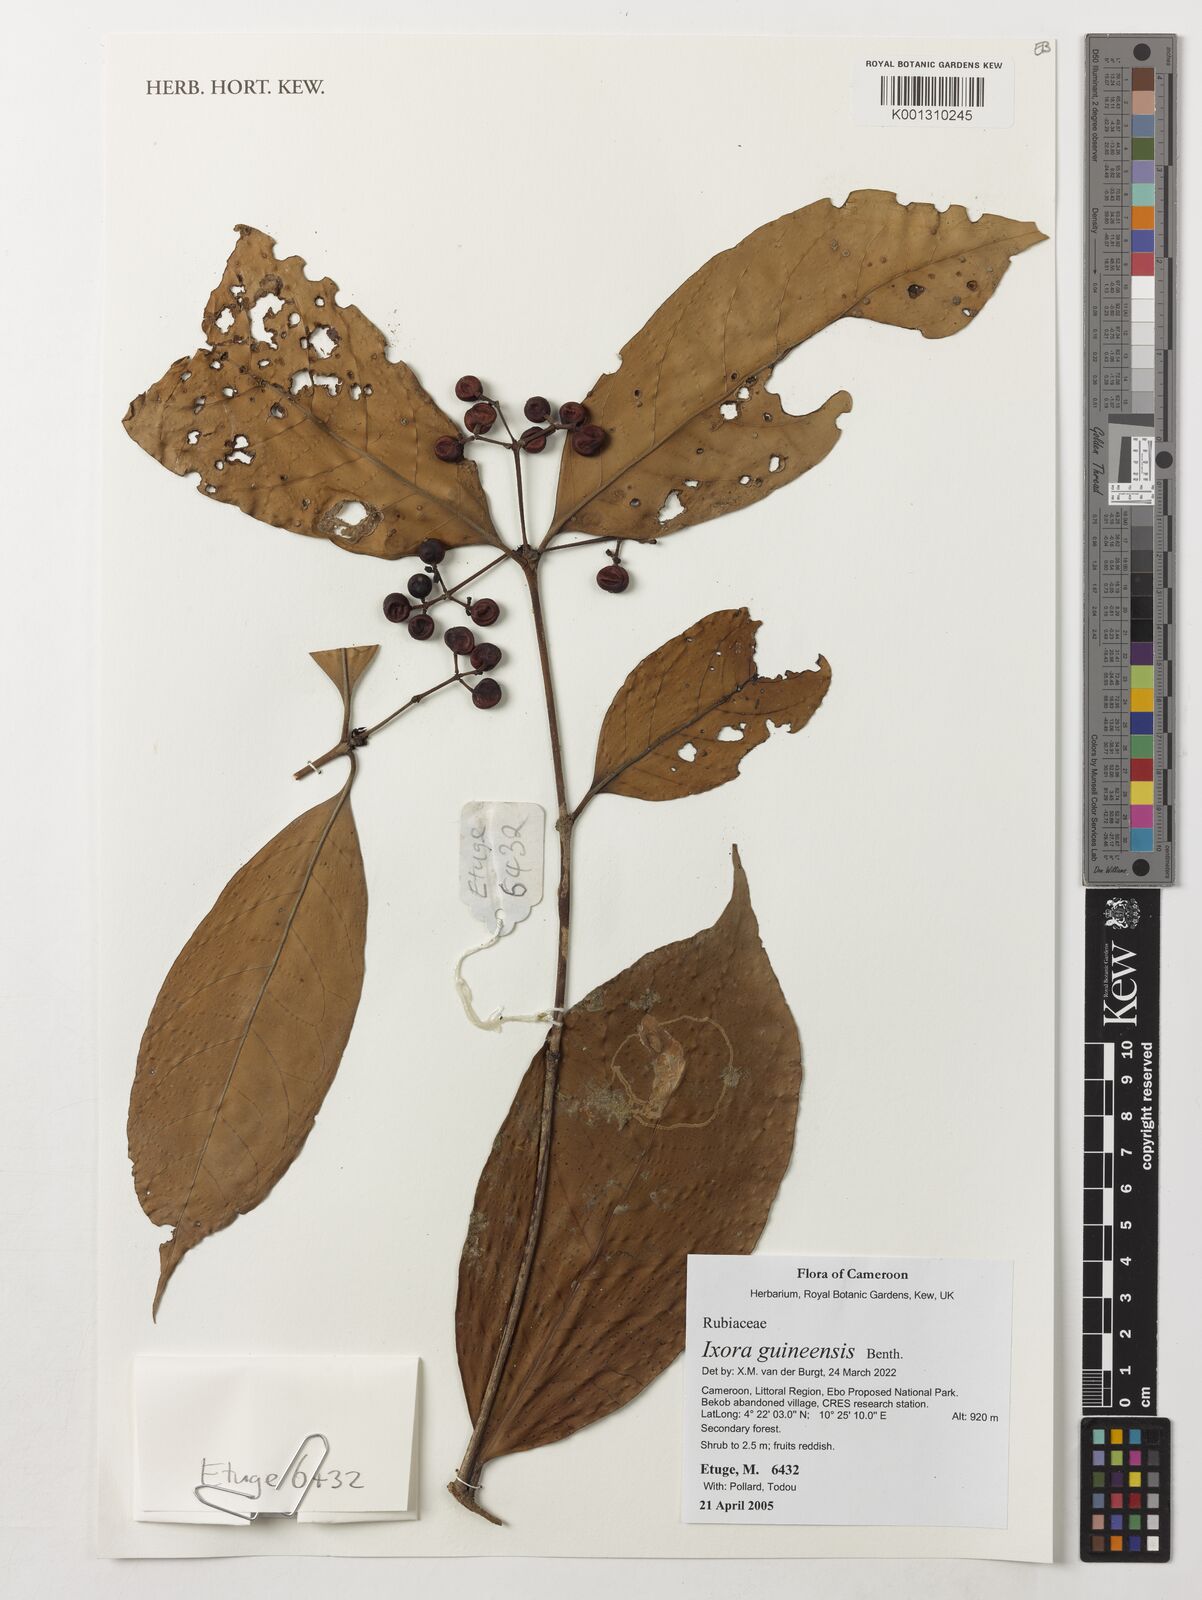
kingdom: Plantae
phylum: Tracheophyta
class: Magnoliopsida
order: Gentianales
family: Rubiaceae
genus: Faramea
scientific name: Faramea lourteigiana
